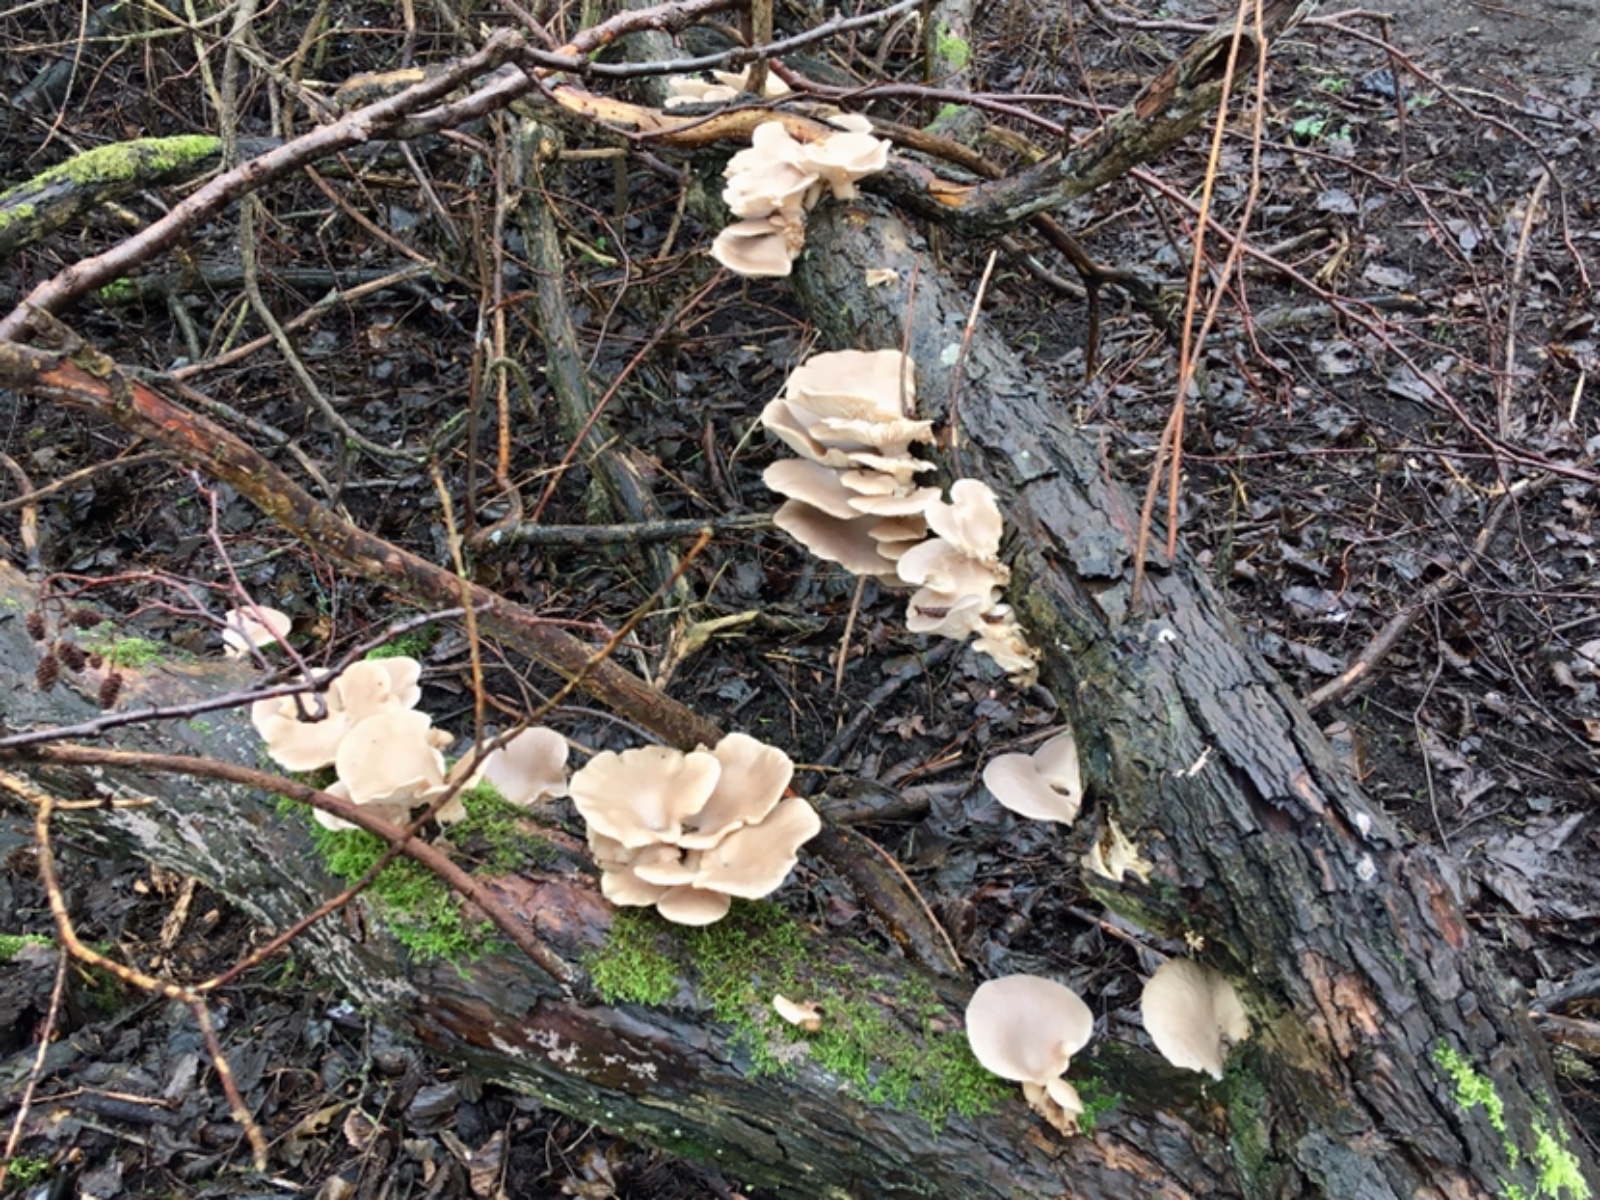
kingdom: Fungi
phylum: Basidiomycota
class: Agaricomycetes
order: Agaricales
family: Pleurotaceae
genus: Pleurotus
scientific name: Pleurotus ostreatus
